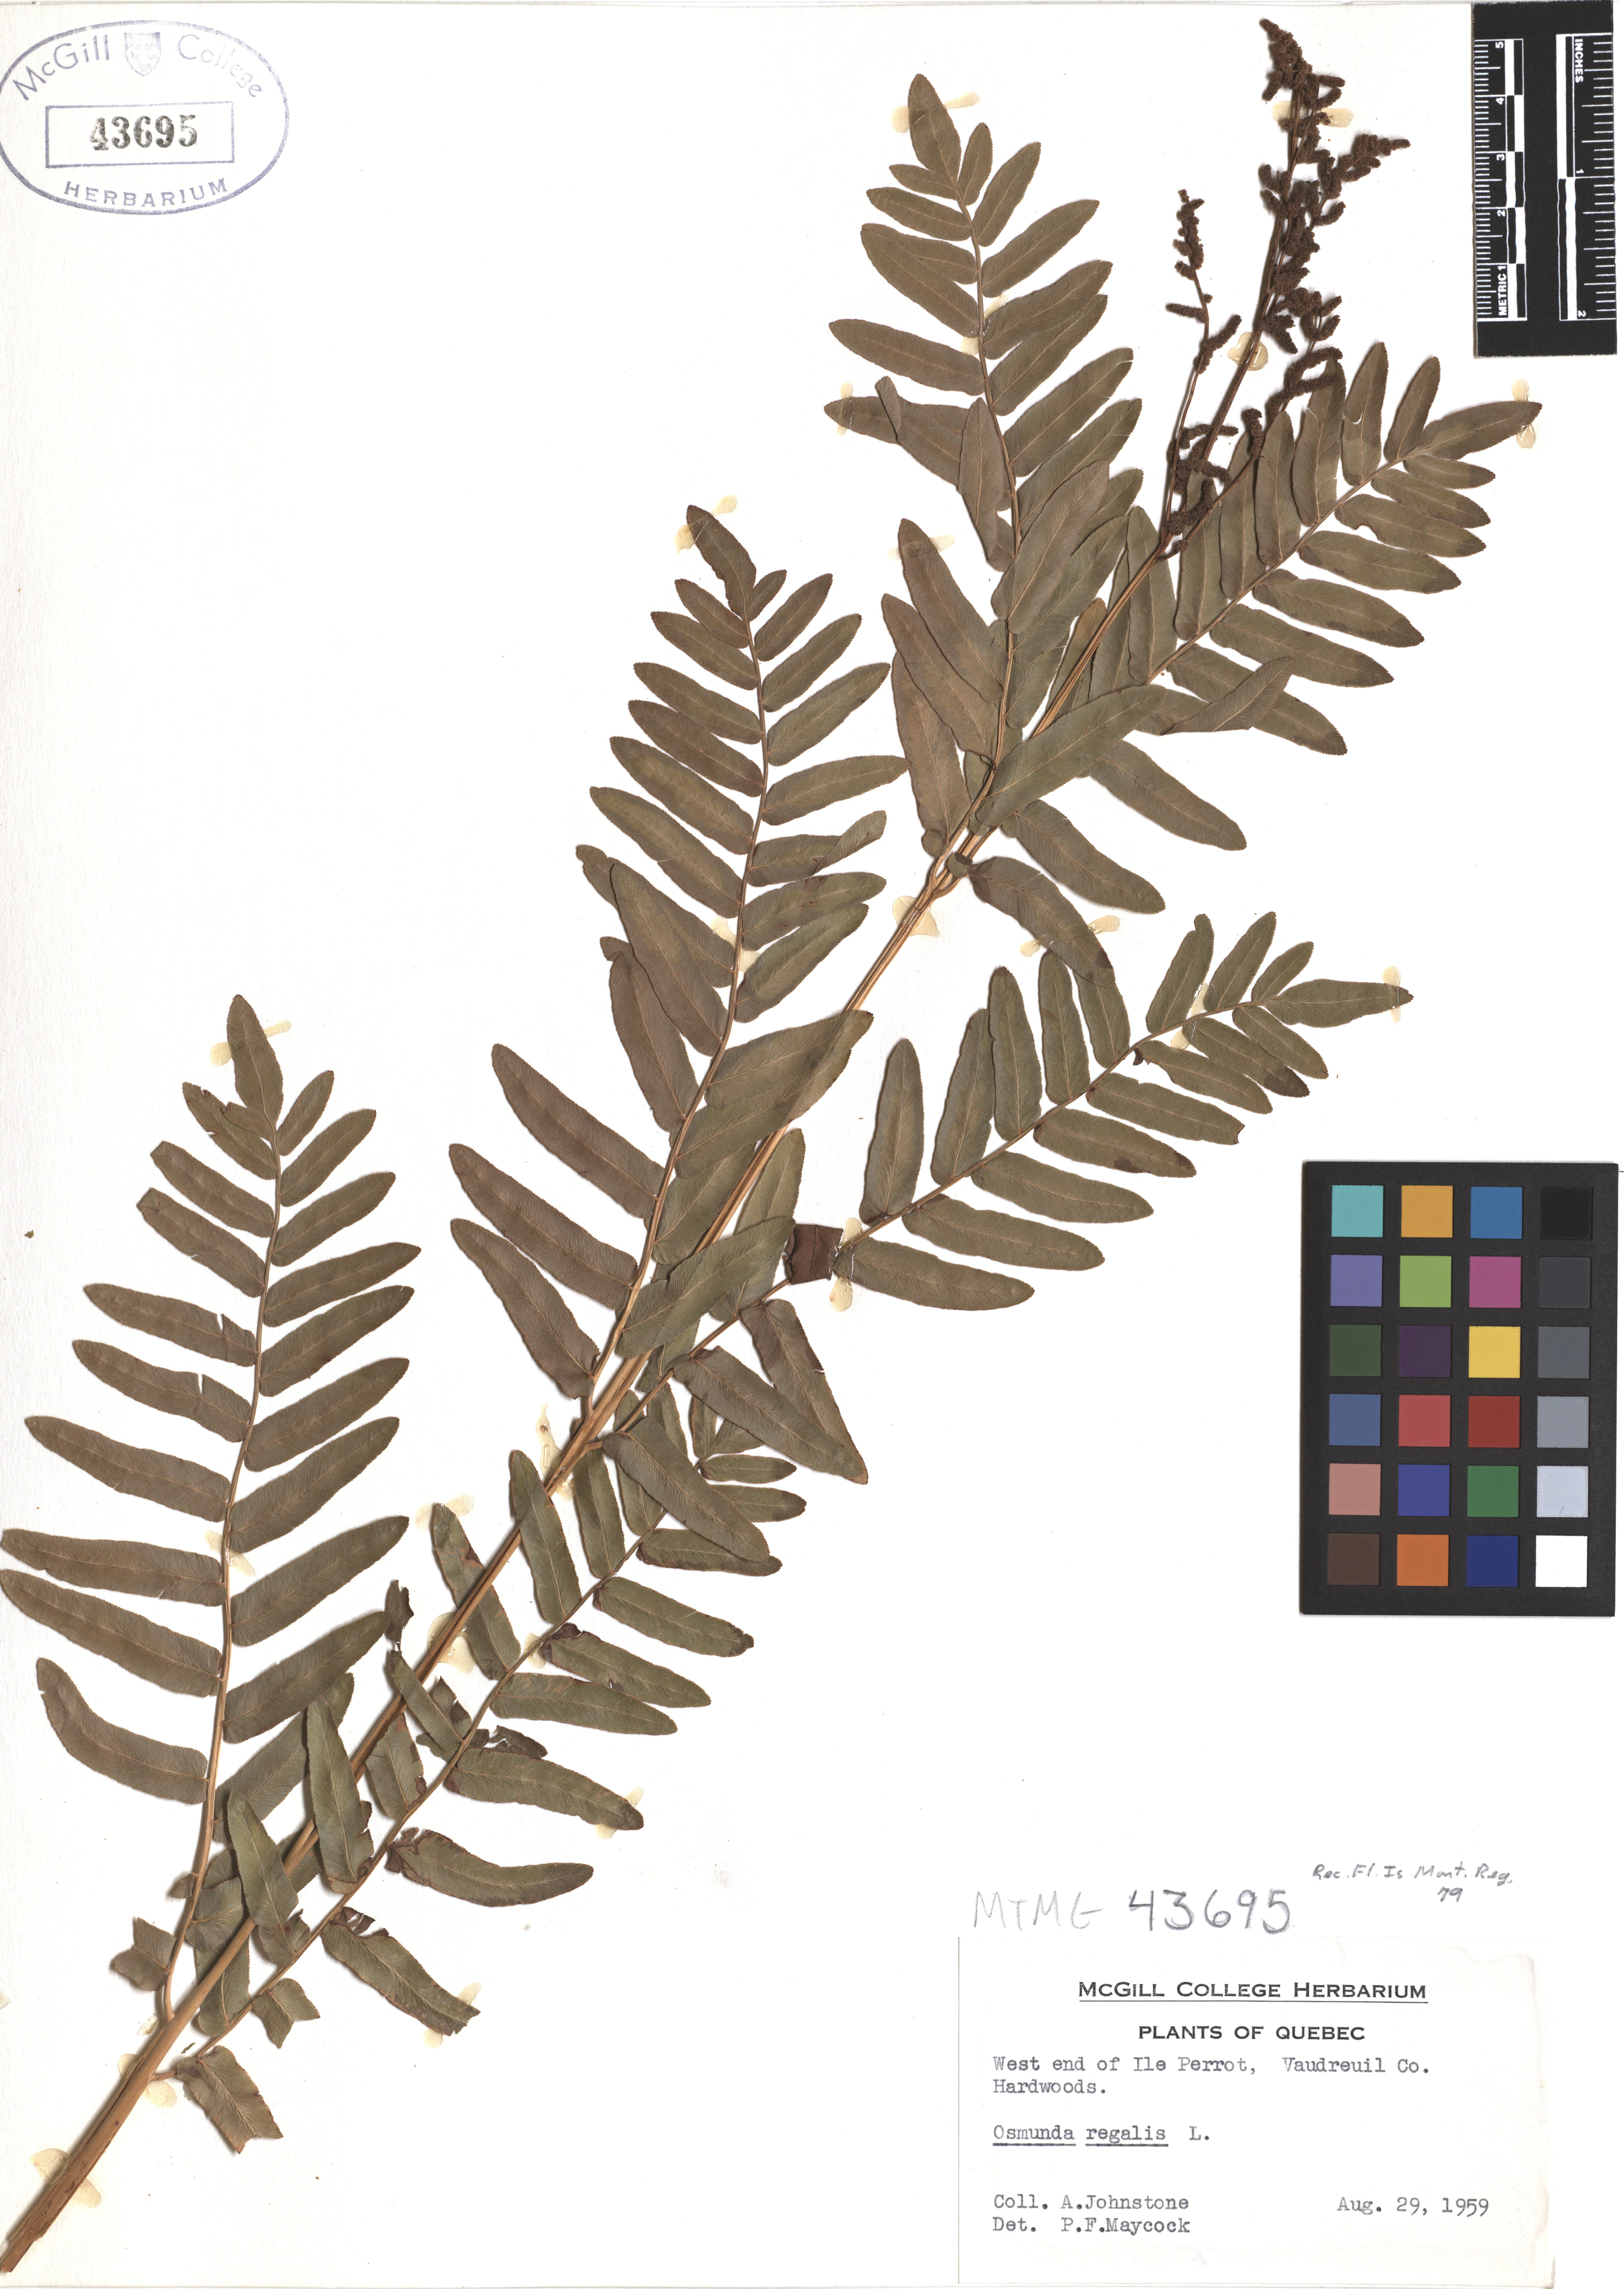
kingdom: Plantae
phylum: Tracheophyta
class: Polypodiopsida
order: Osmundales
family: Osmundaceae
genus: Osmunda
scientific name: Osmunda regalis
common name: Royal fern
